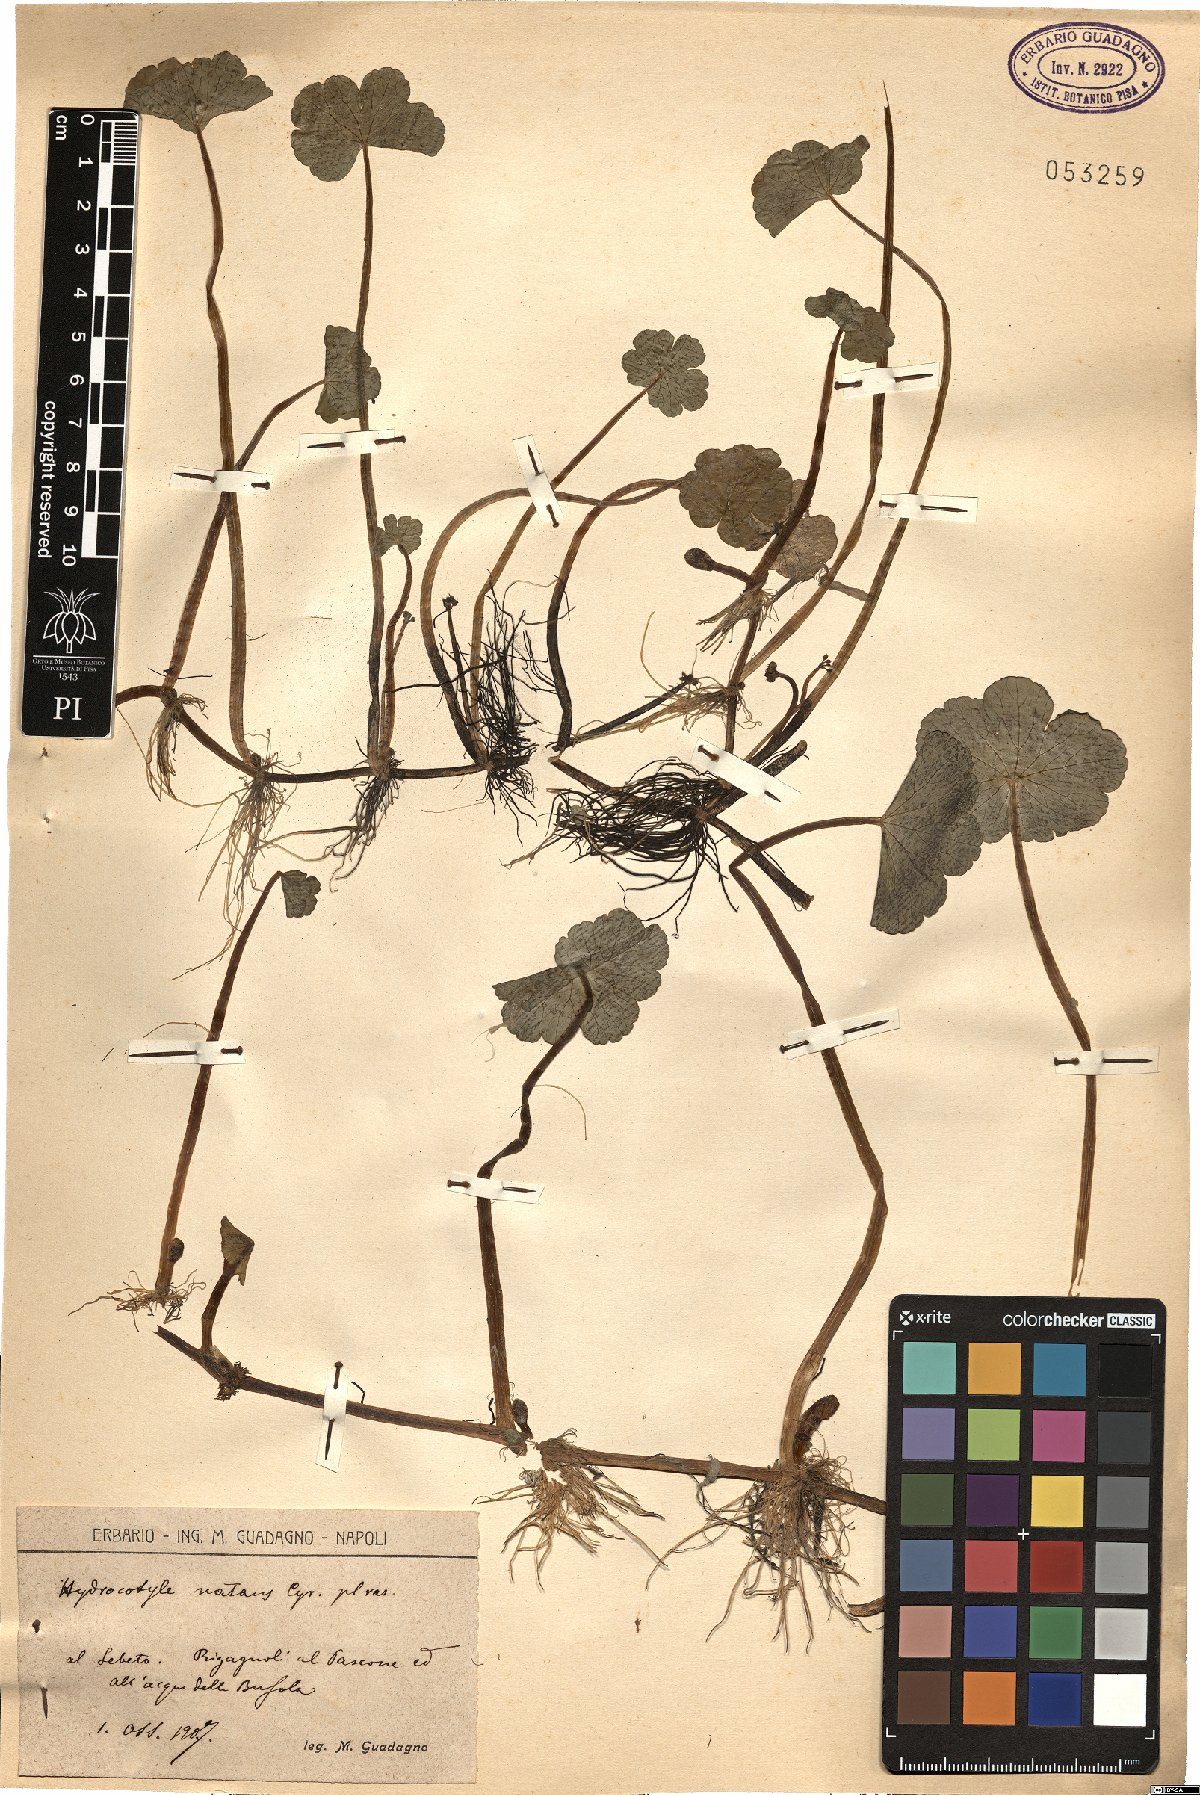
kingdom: Plantae
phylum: Tracheophyta
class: Magnoliopsida
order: Apiales
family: Araliaceae
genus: Hydrocotyle
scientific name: Hydrocotyle ranunculoides
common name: Floating pennywort
